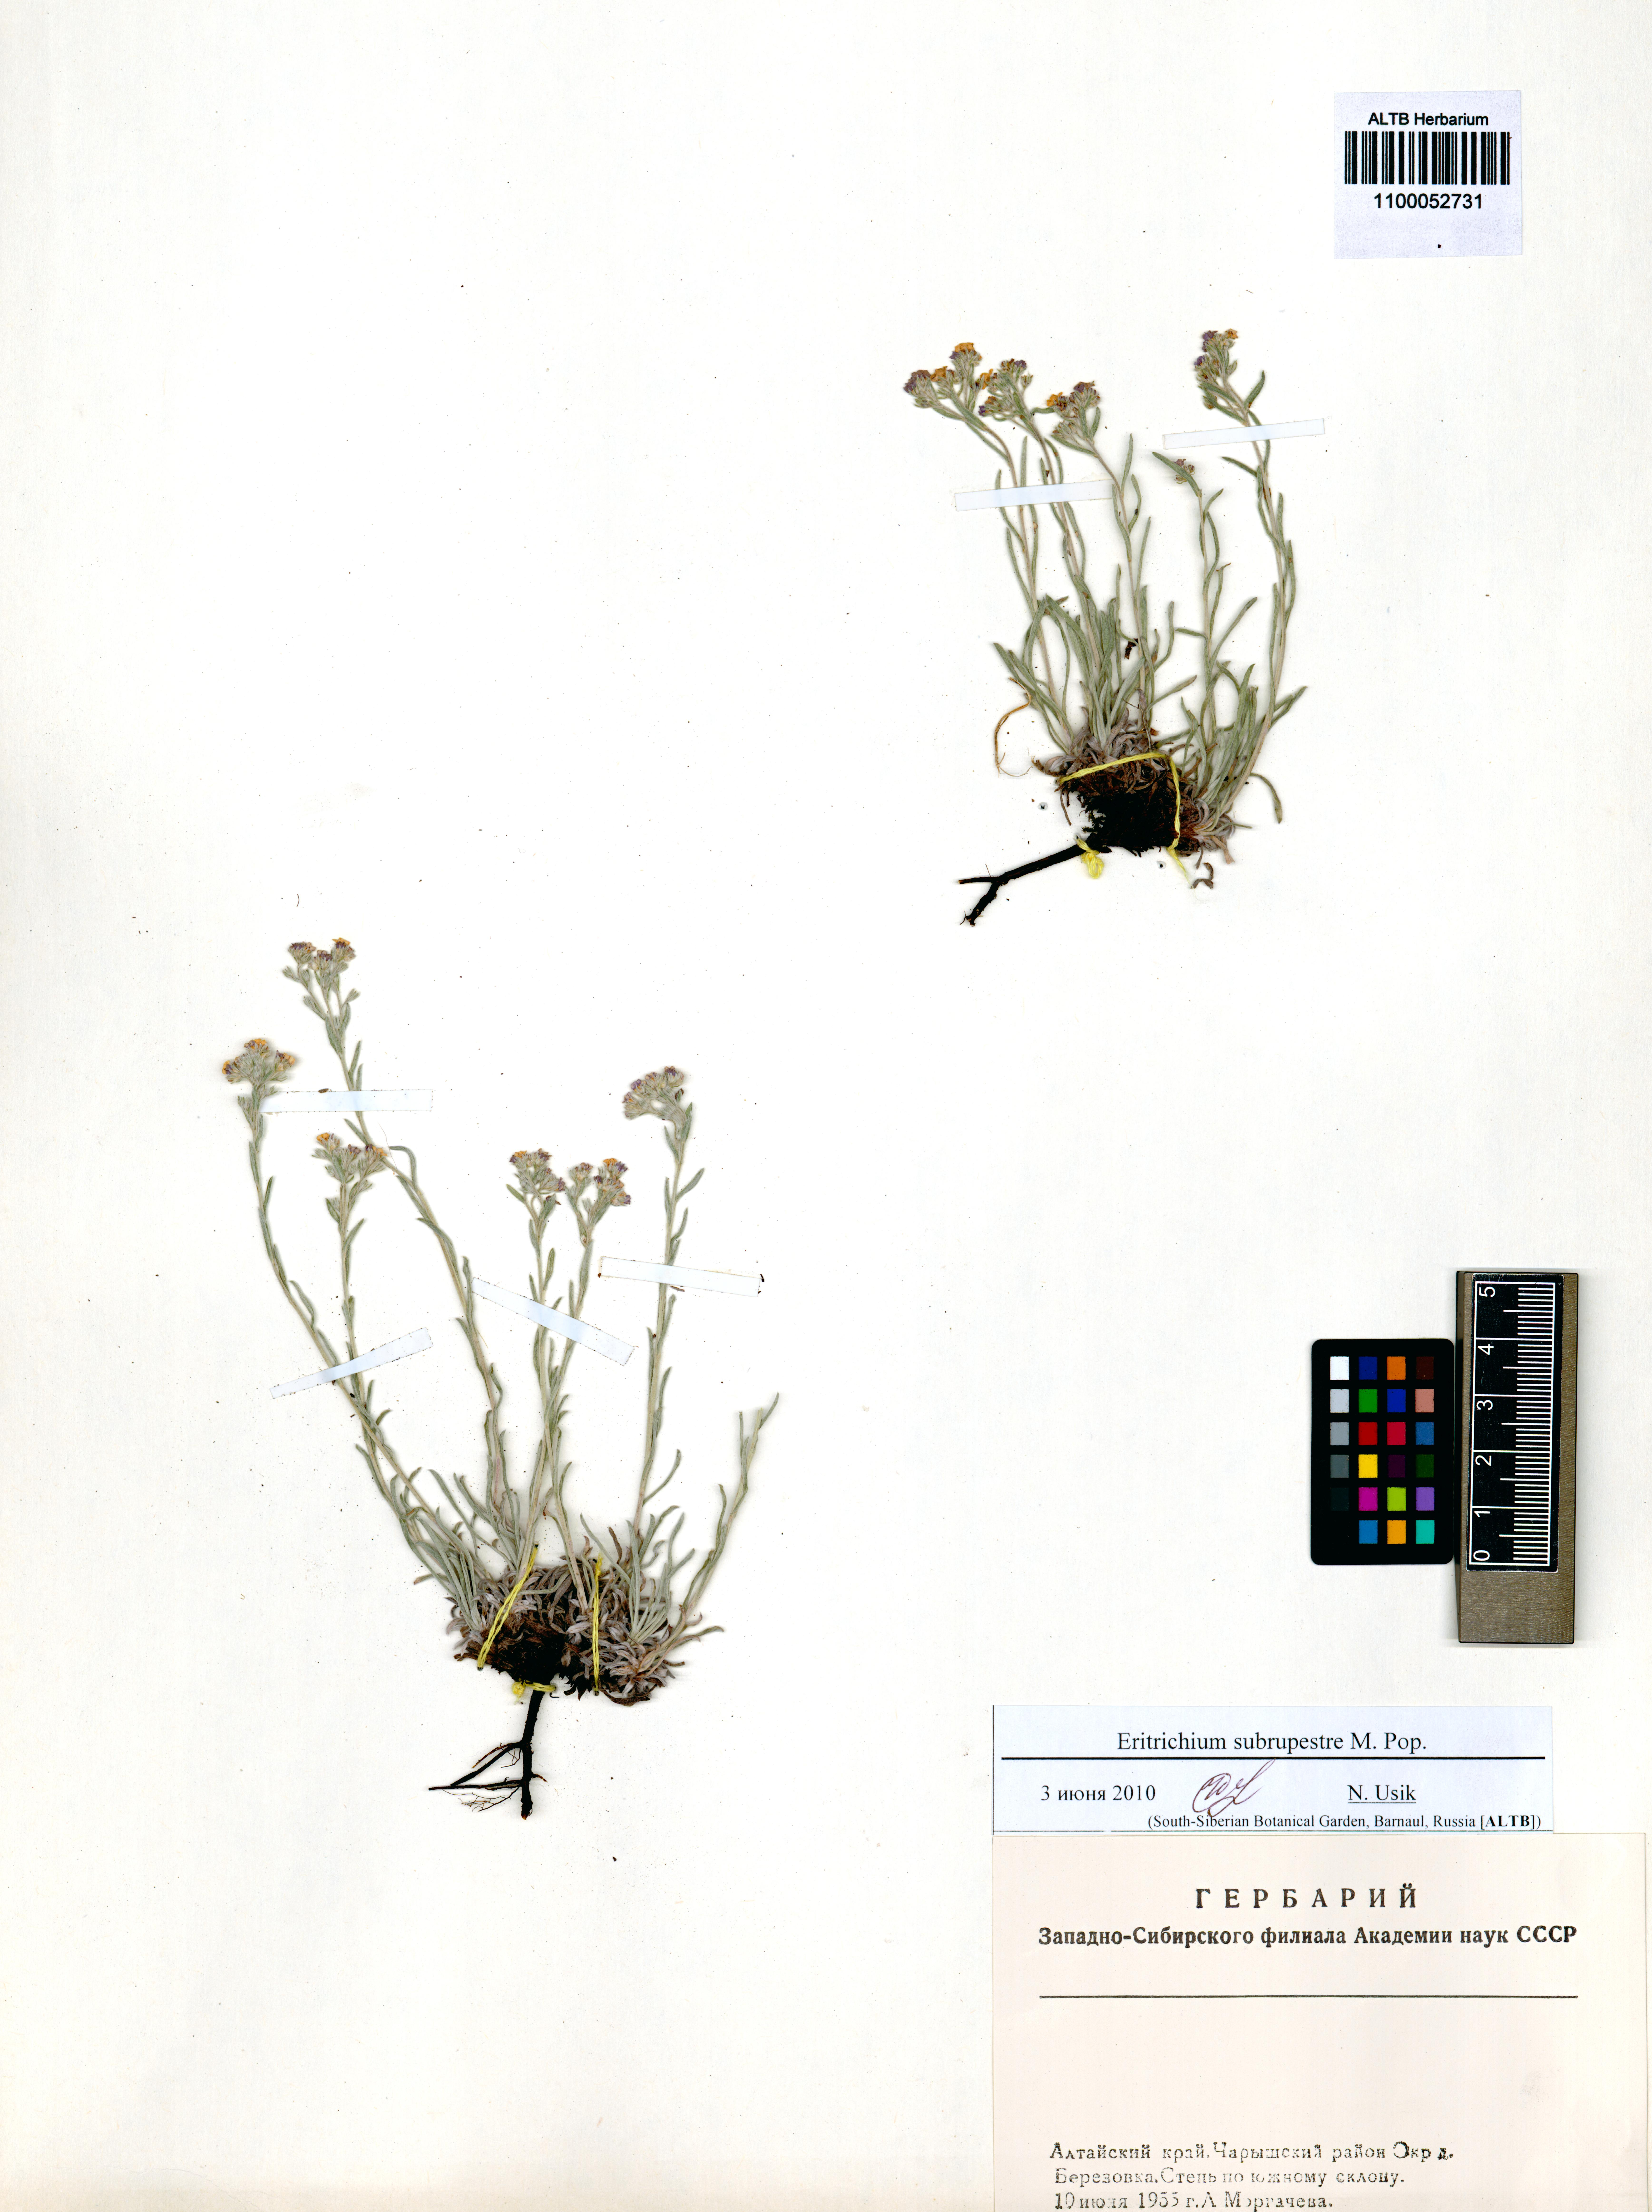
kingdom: Plantae
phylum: Tracheophyta
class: Magnoliopsida
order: Boraginales
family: Boraginaceae
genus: Eritrichium
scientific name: Eritrichium pauciflorum
